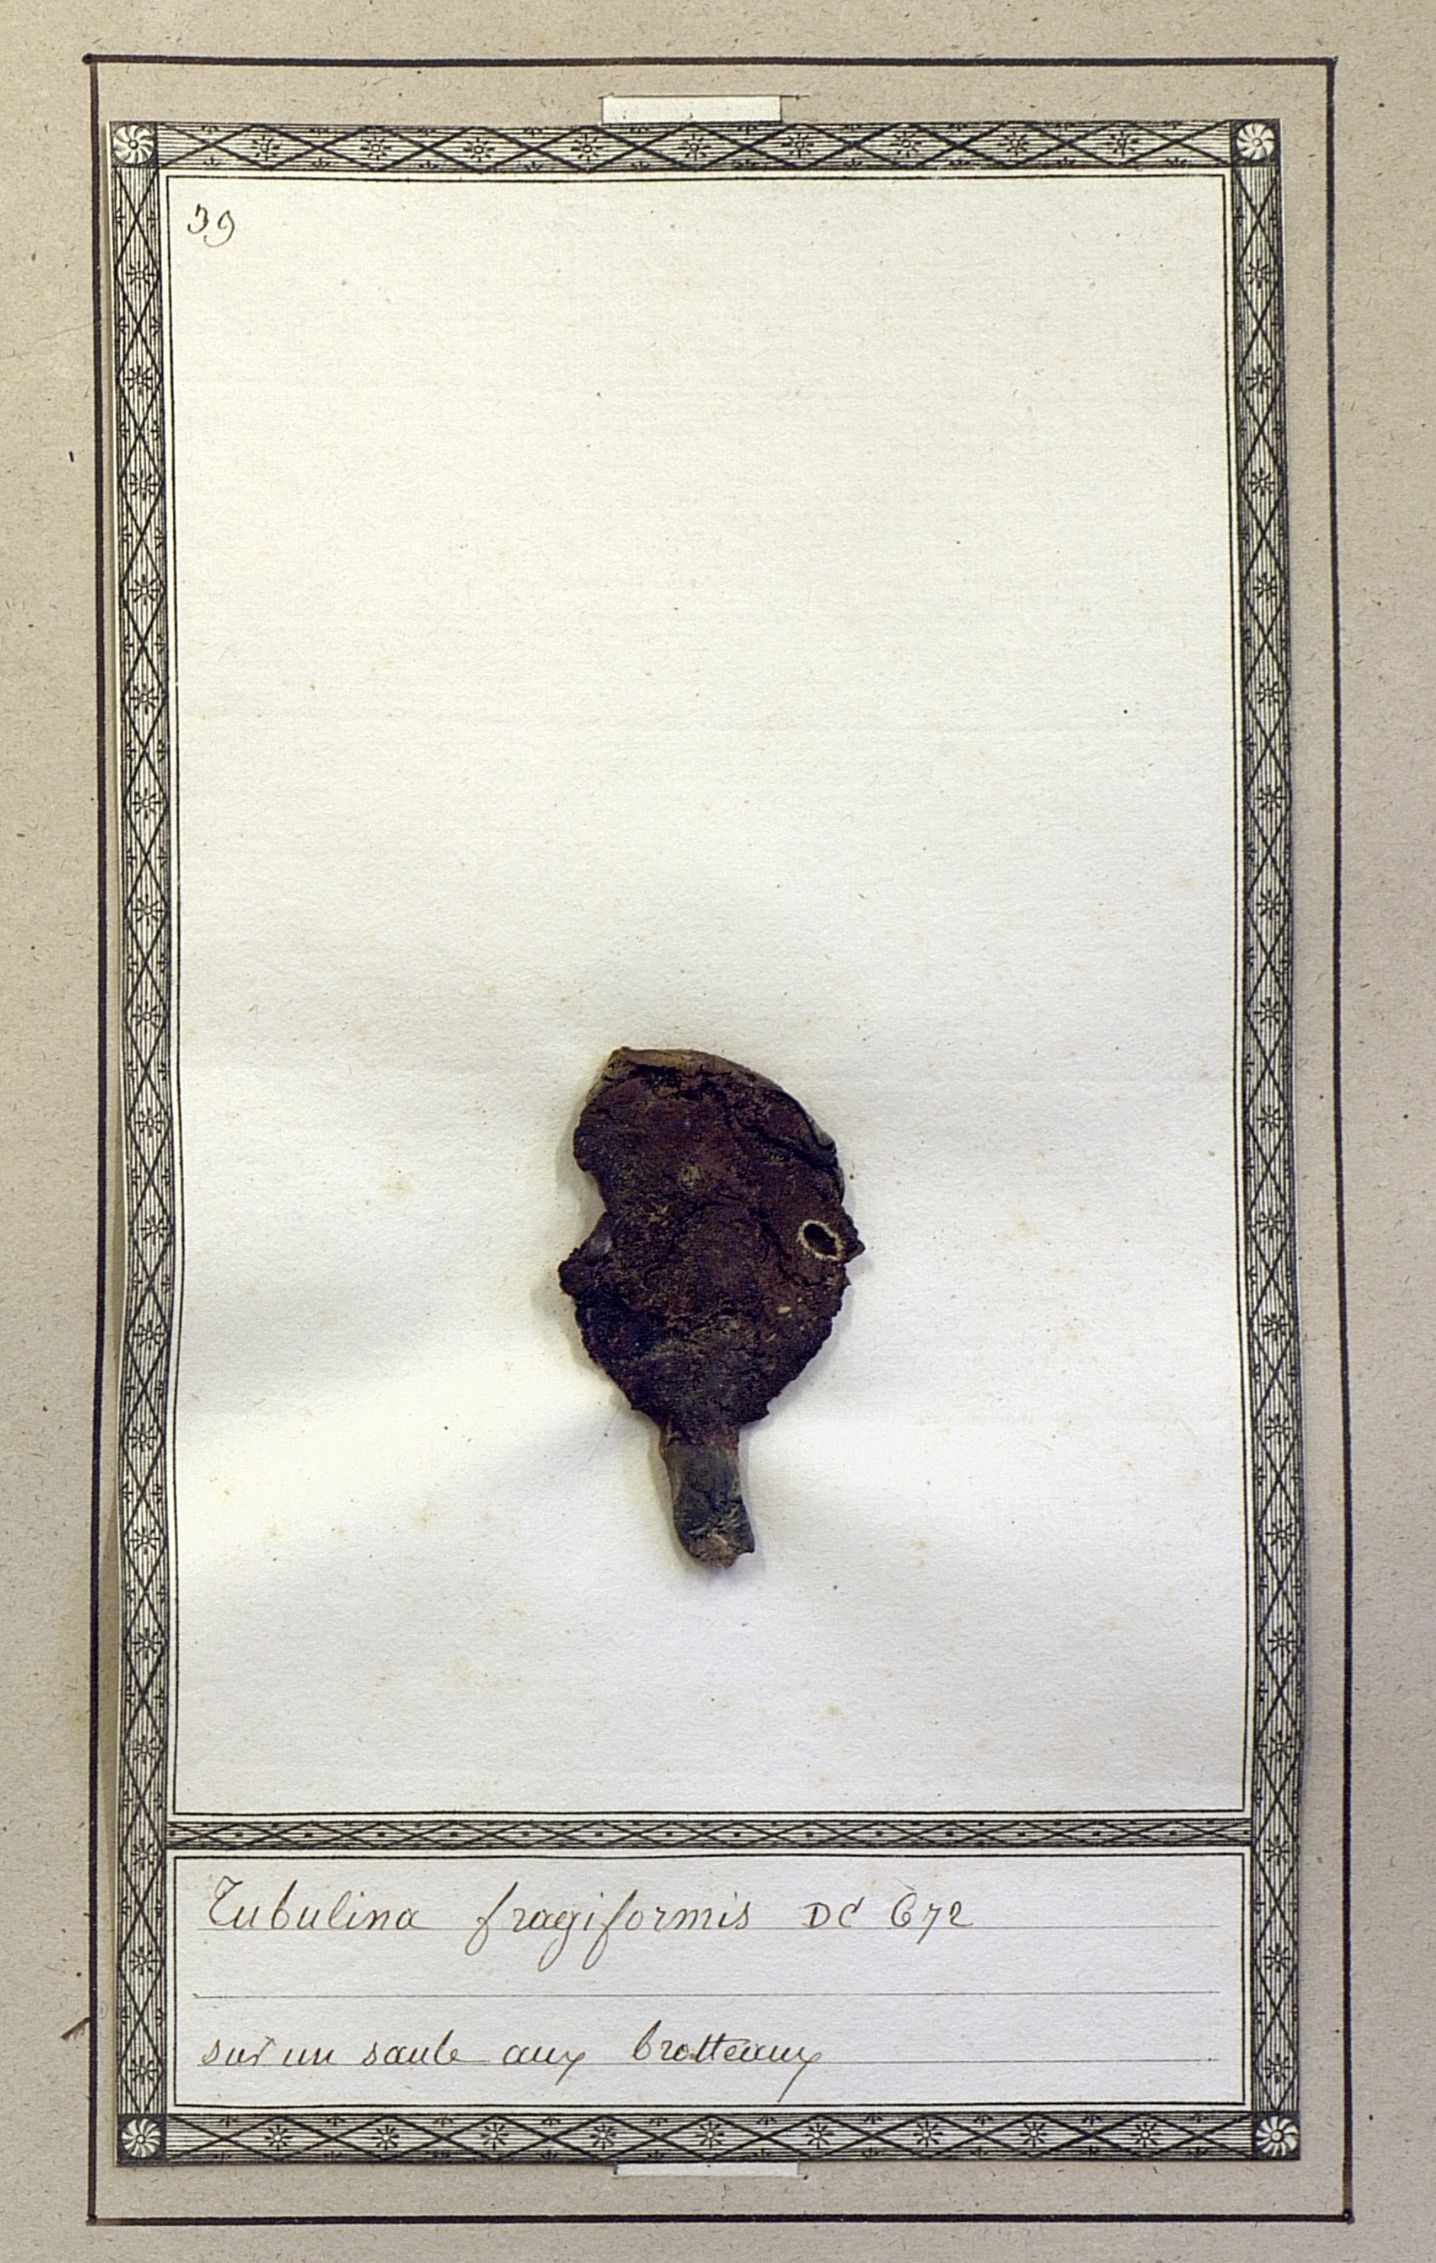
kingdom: Protozoa
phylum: Mycetozoa
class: Myxomycetes
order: Cribrariales
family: Tubiferaceae
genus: Tubifera
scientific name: Tubifera ferruginosa
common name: Red raspberry slime mold
